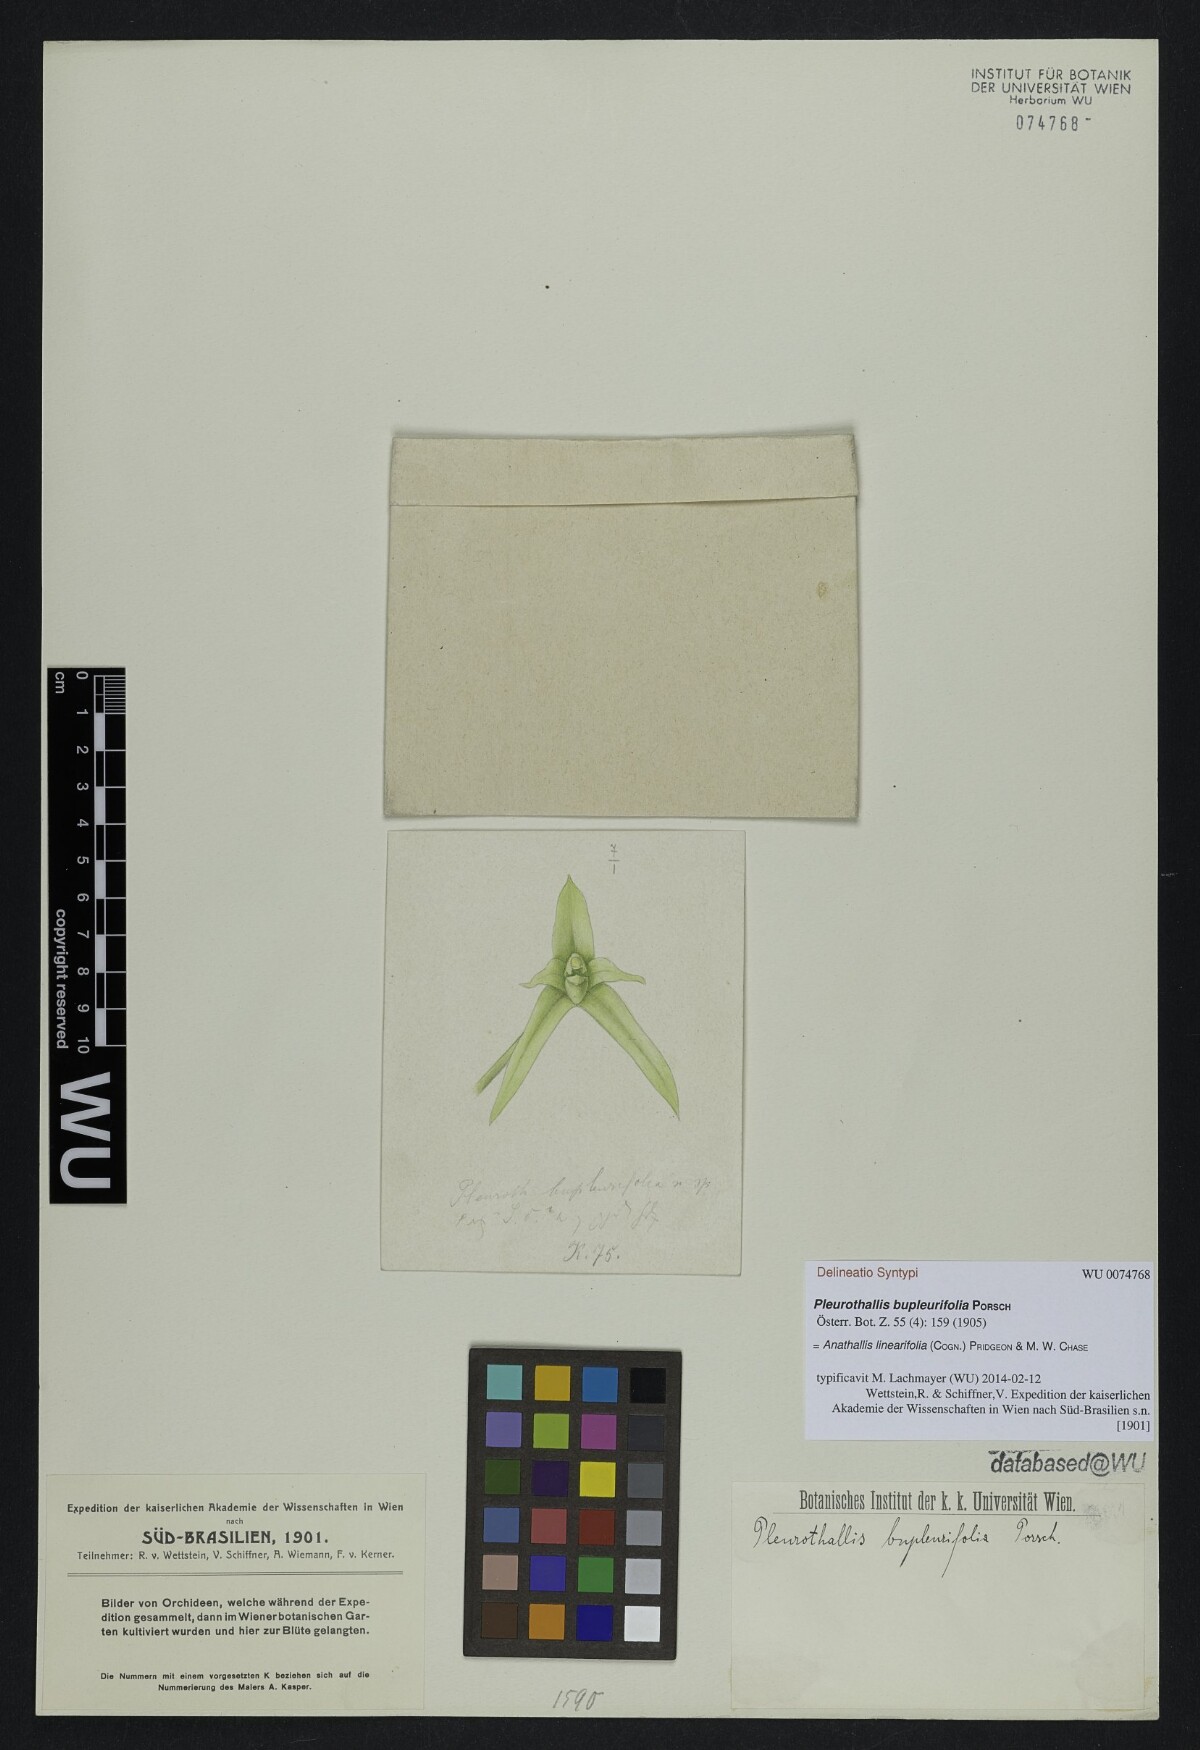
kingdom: Plantae
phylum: Tracheophyta
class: Liliopsida
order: Asparagales
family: Orchidaceae
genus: Anathallis
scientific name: Anathallis linearifolia
